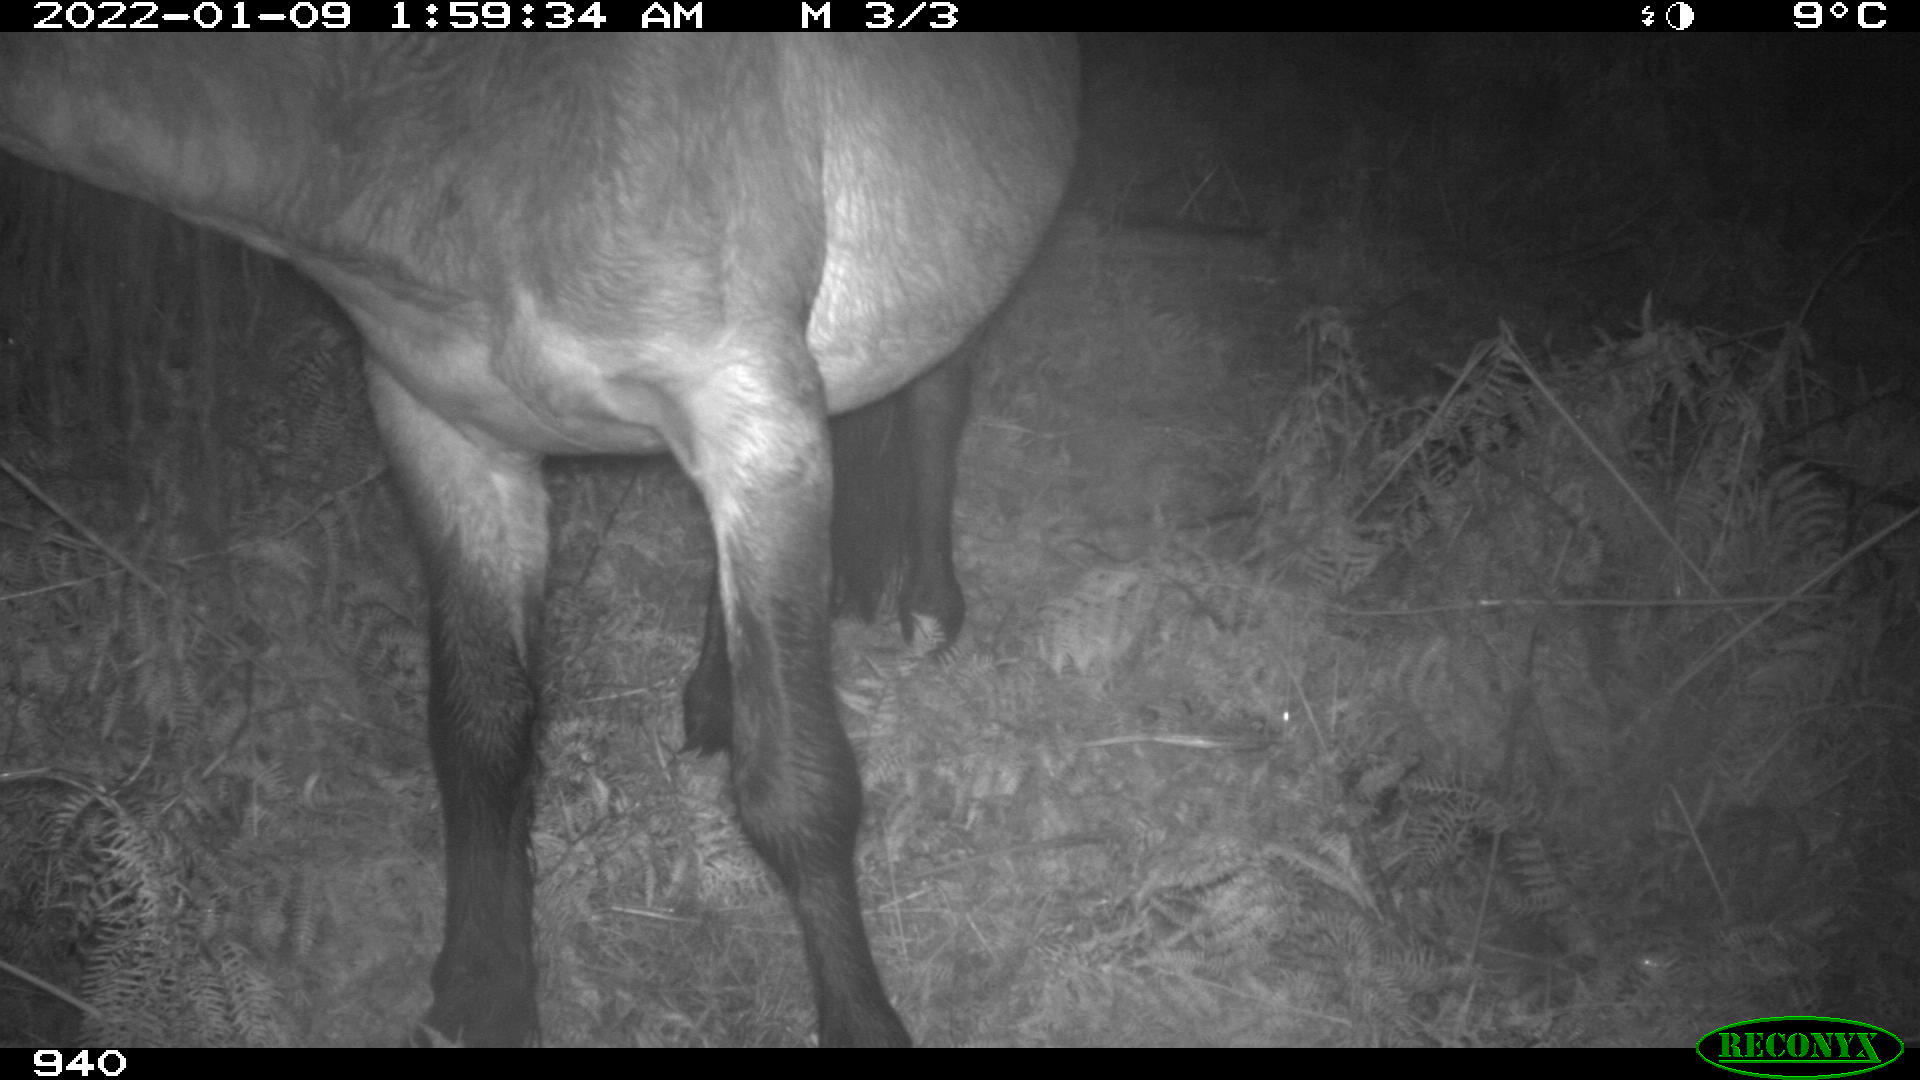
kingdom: Animalia
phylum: Chordata
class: Mammalia
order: Perissodactyla
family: Equidae
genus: Equus
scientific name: Equus caballus
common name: Horse
